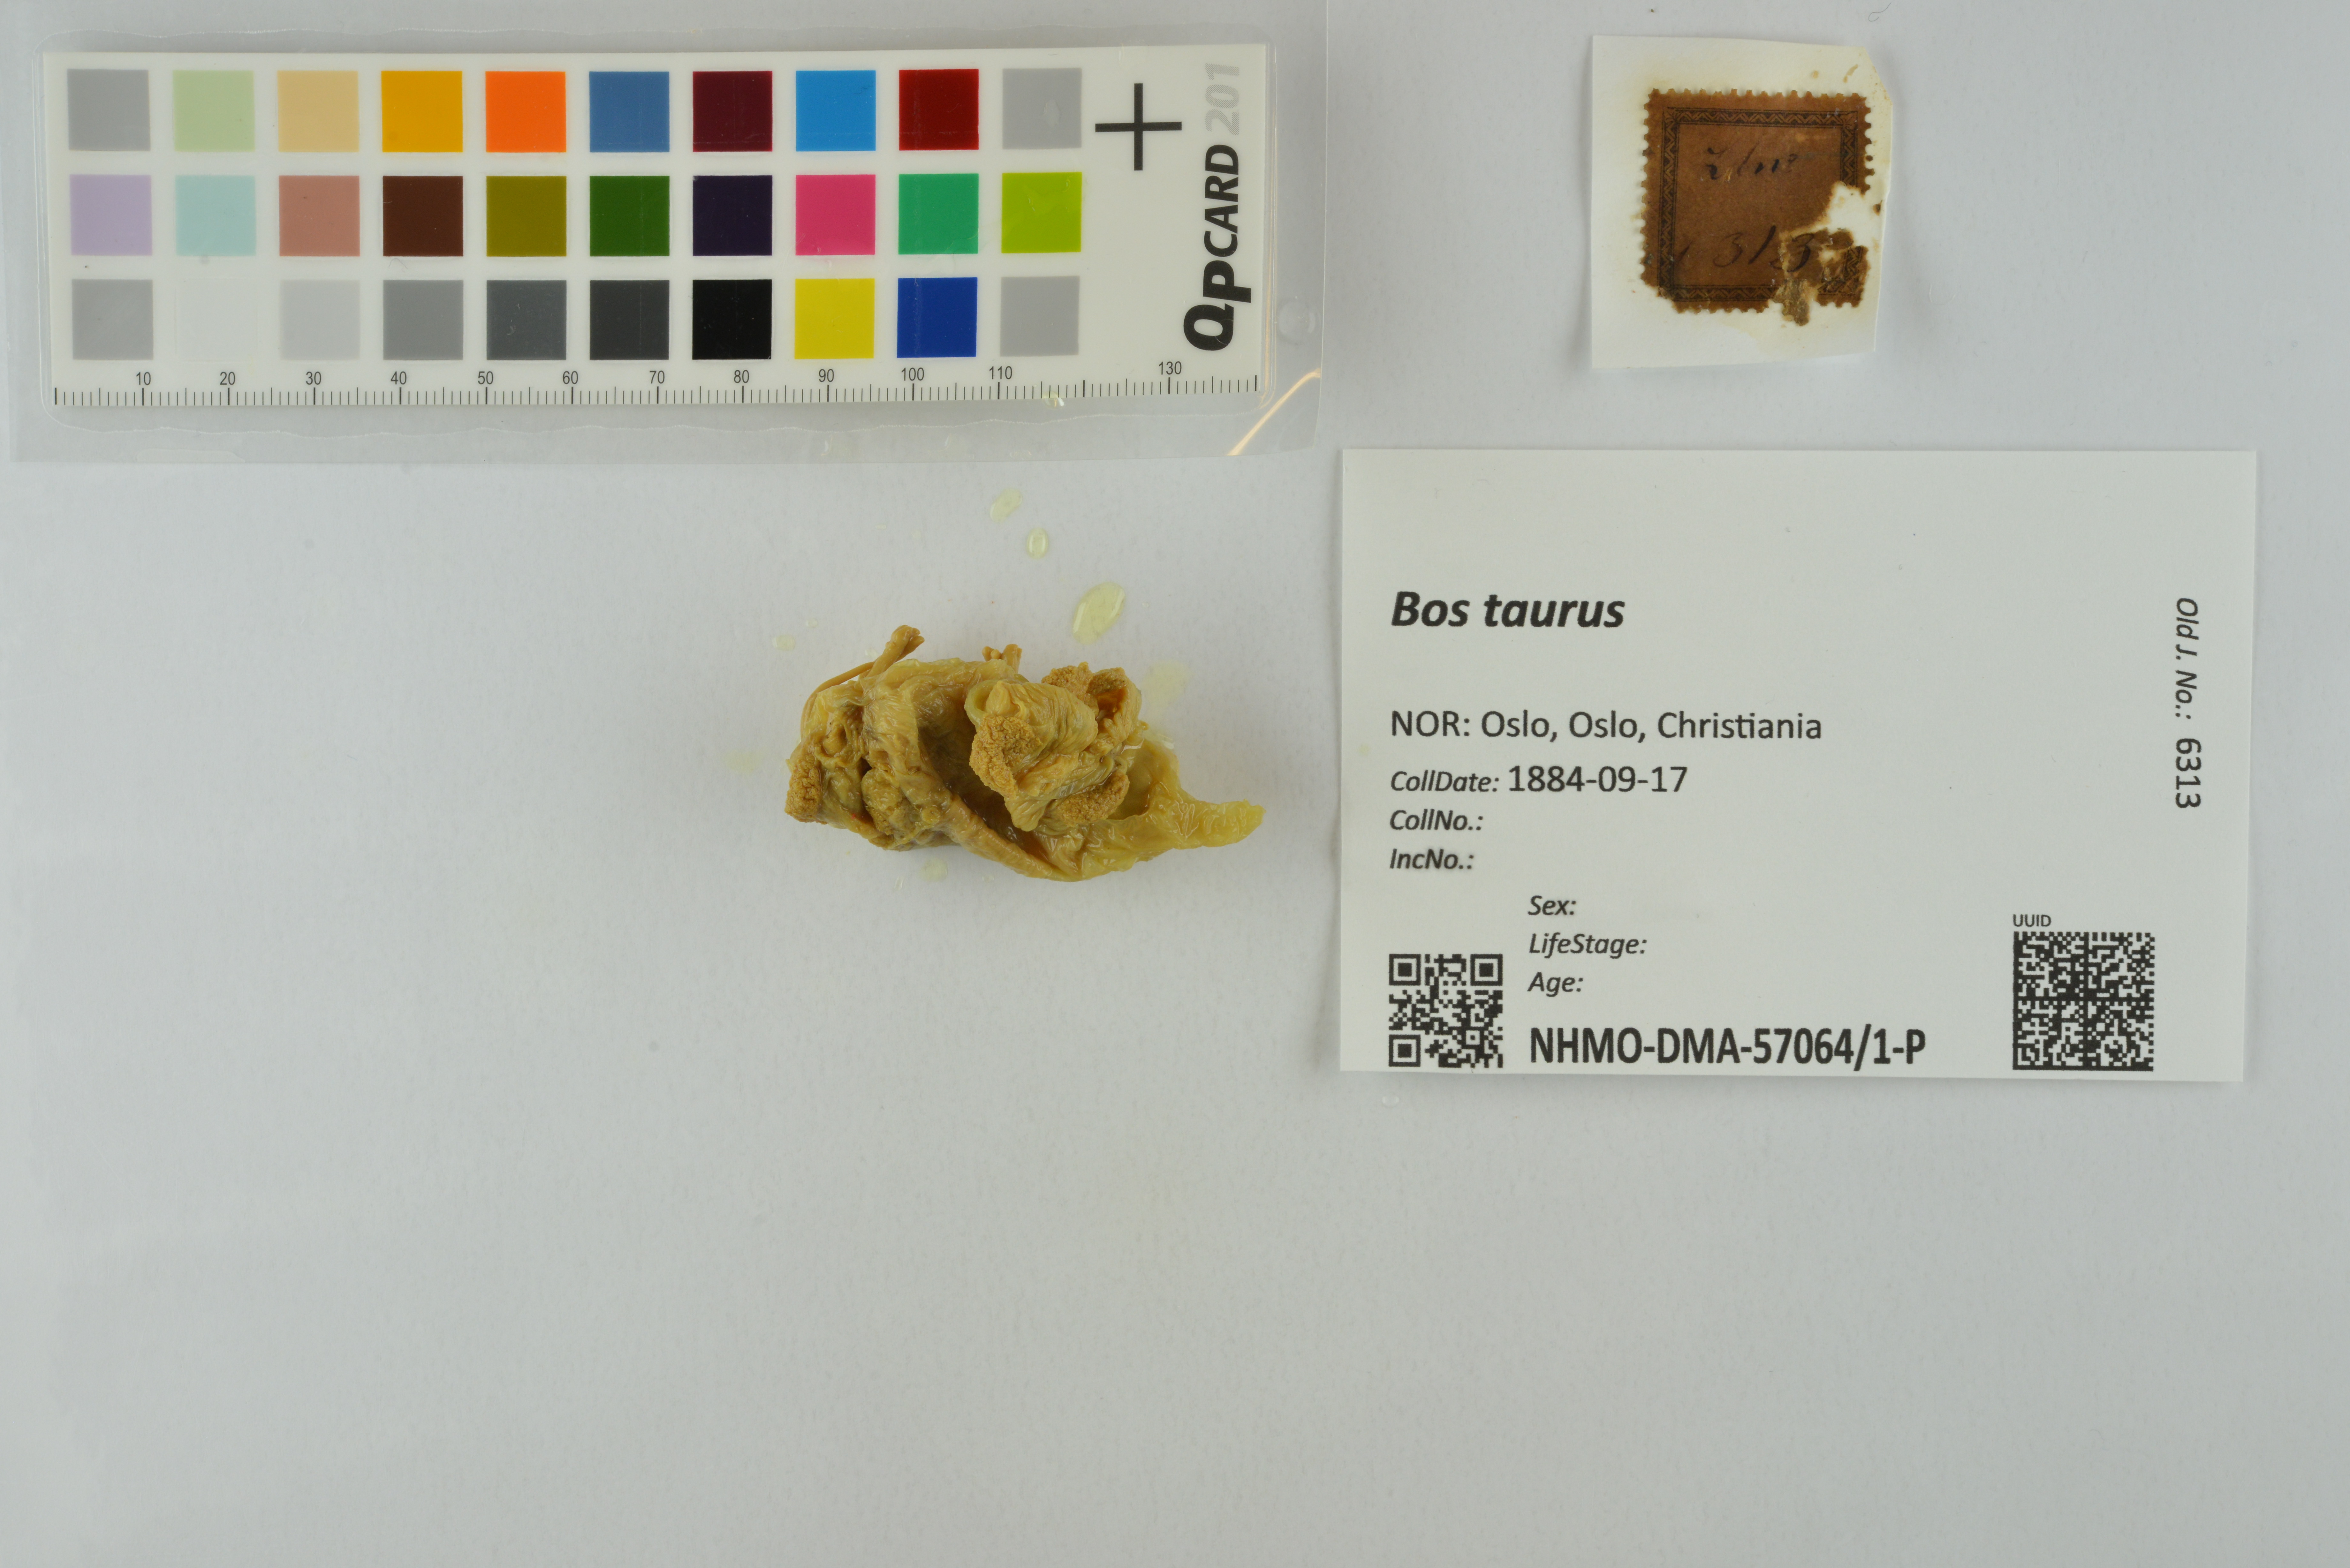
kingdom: Animalia
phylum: Chordata
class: Mammalia
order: Artiodactyla
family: Bovidae
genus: Bos
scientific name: Bos taurus
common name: Domesticated cattle
